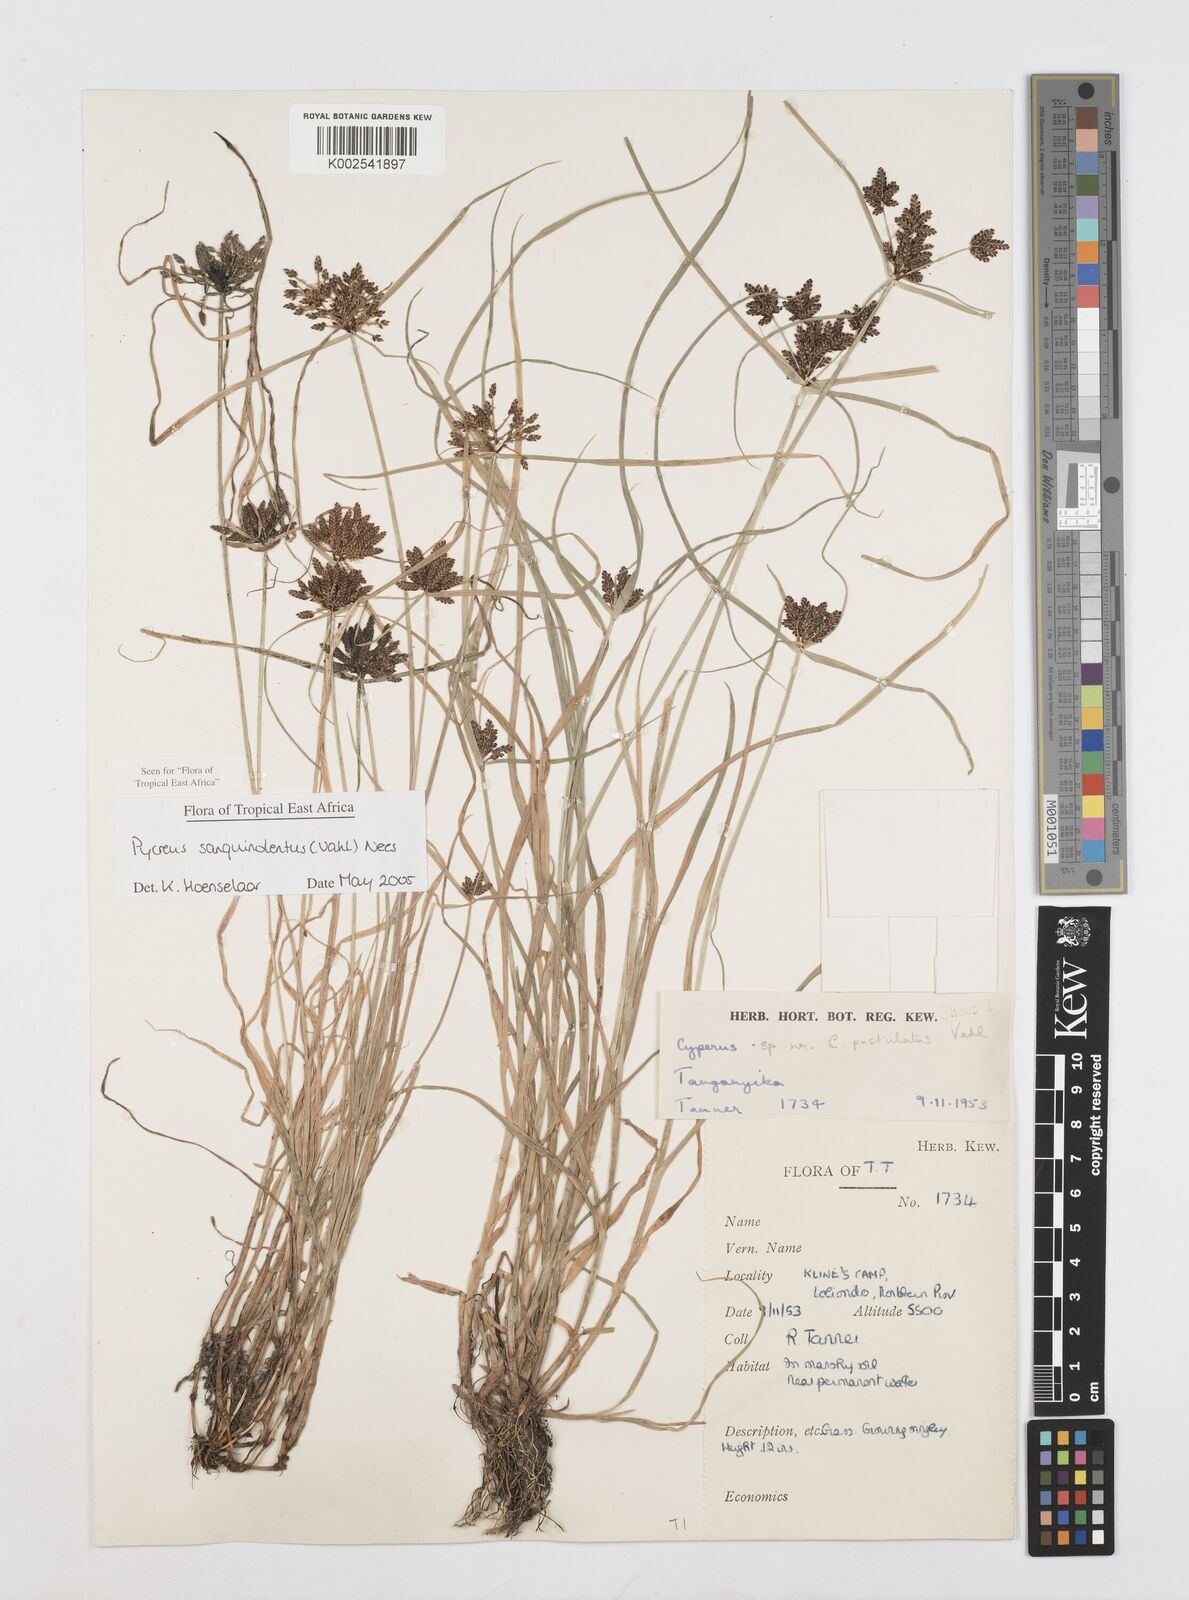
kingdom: Plantae
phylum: Tracheophyta
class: Liliopsida
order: Poales
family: Cyperaceae
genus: Cyperus
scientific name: Cyperus sanguinolentus
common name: Purpleglume flatsedge
